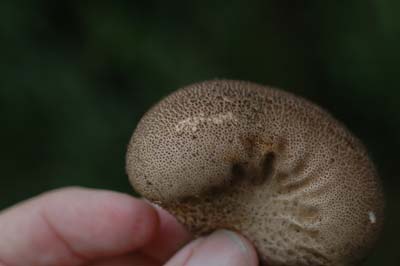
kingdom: Fungi
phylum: Basidiomycota
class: Agaricomycetes
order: Agaricales
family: Lycoperdaceae
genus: Lycoperdon
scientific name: Lycoperdon nigrescens
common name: sortagtig støvbold
